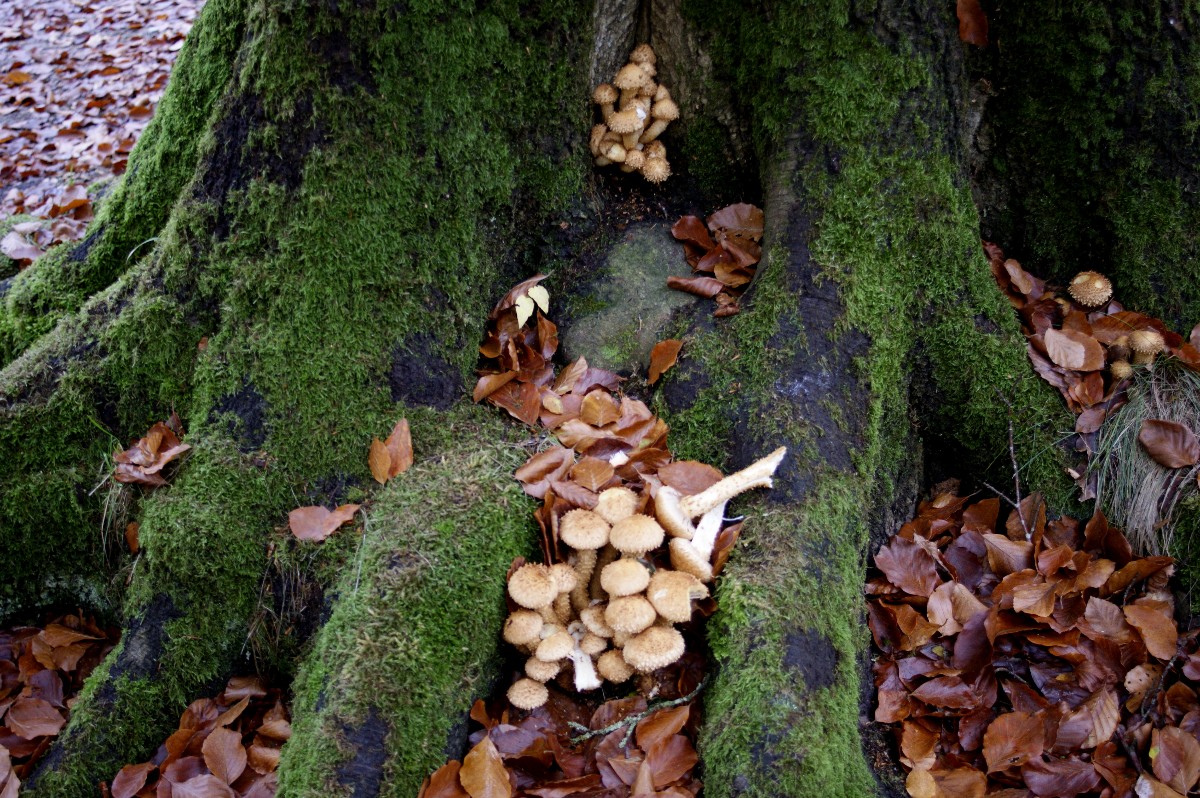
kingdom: Fungi
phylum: Basidiomycota
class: Agaricomycetes
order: Agaricales
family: Strophariaceae
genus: Pholiota
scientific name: Pholiota squarrosa
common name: krumskællet skælhat
